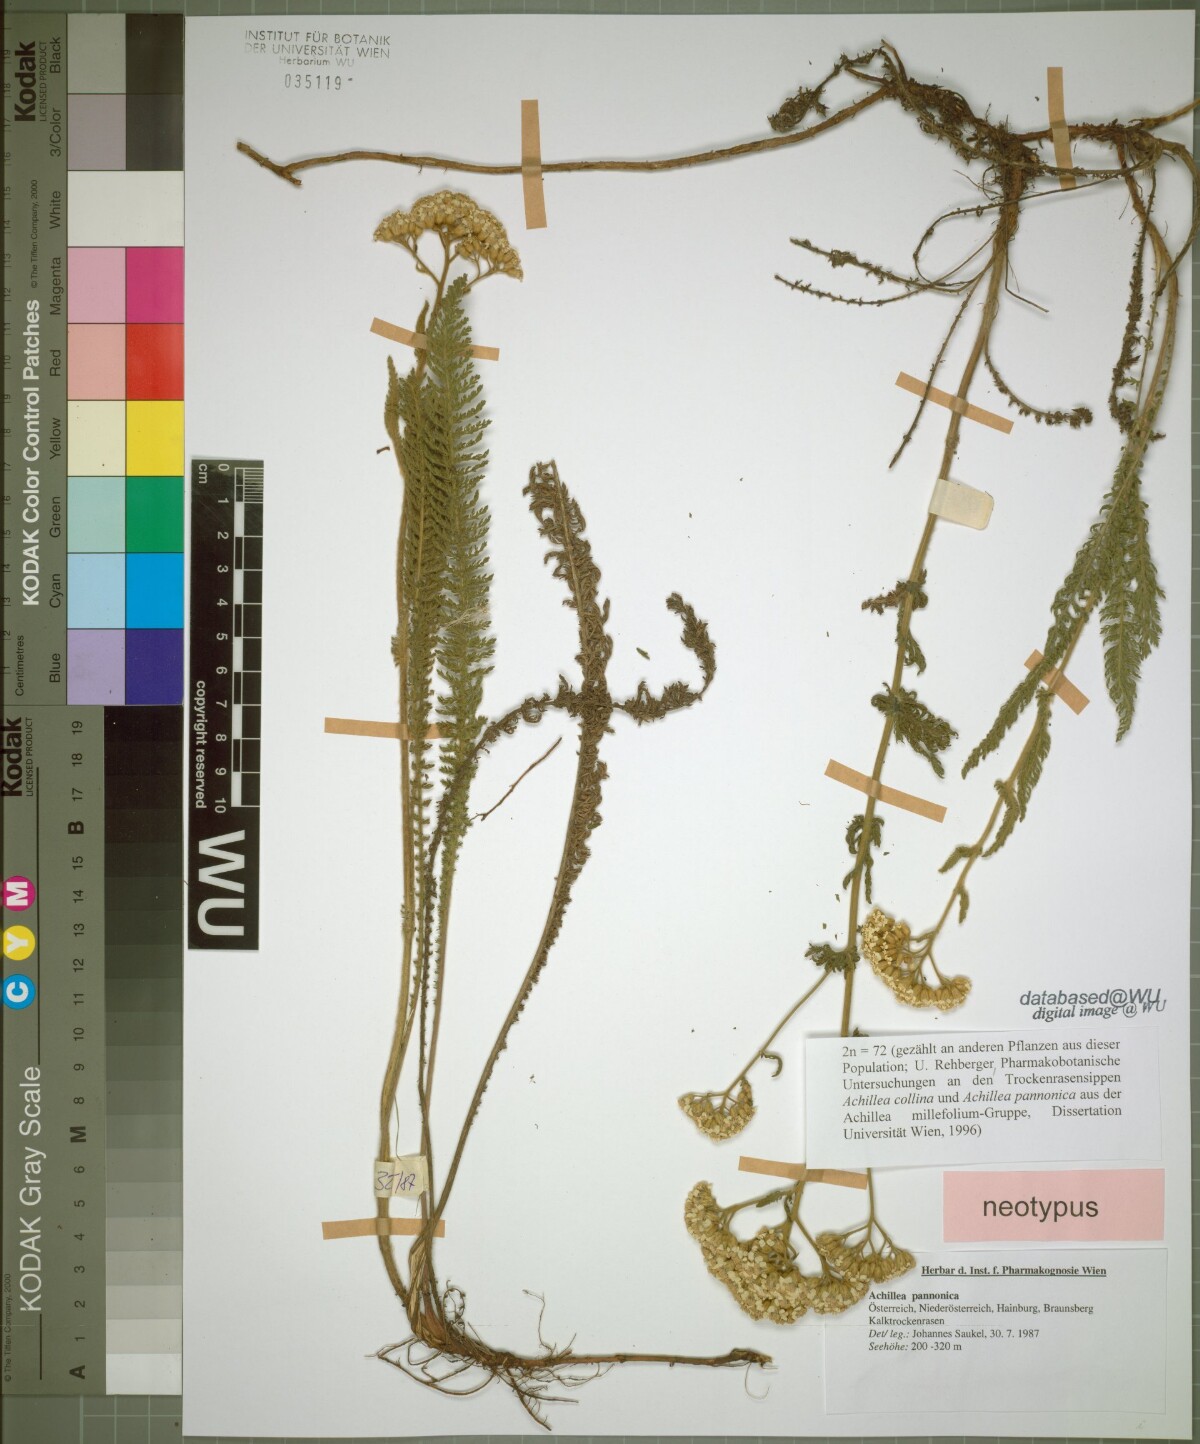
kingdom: Plantae
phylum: Tracheophyta
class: Magnoliopsida
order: Asterales
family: Asteraceae
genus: Achillea
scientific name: Achillea pannonica
